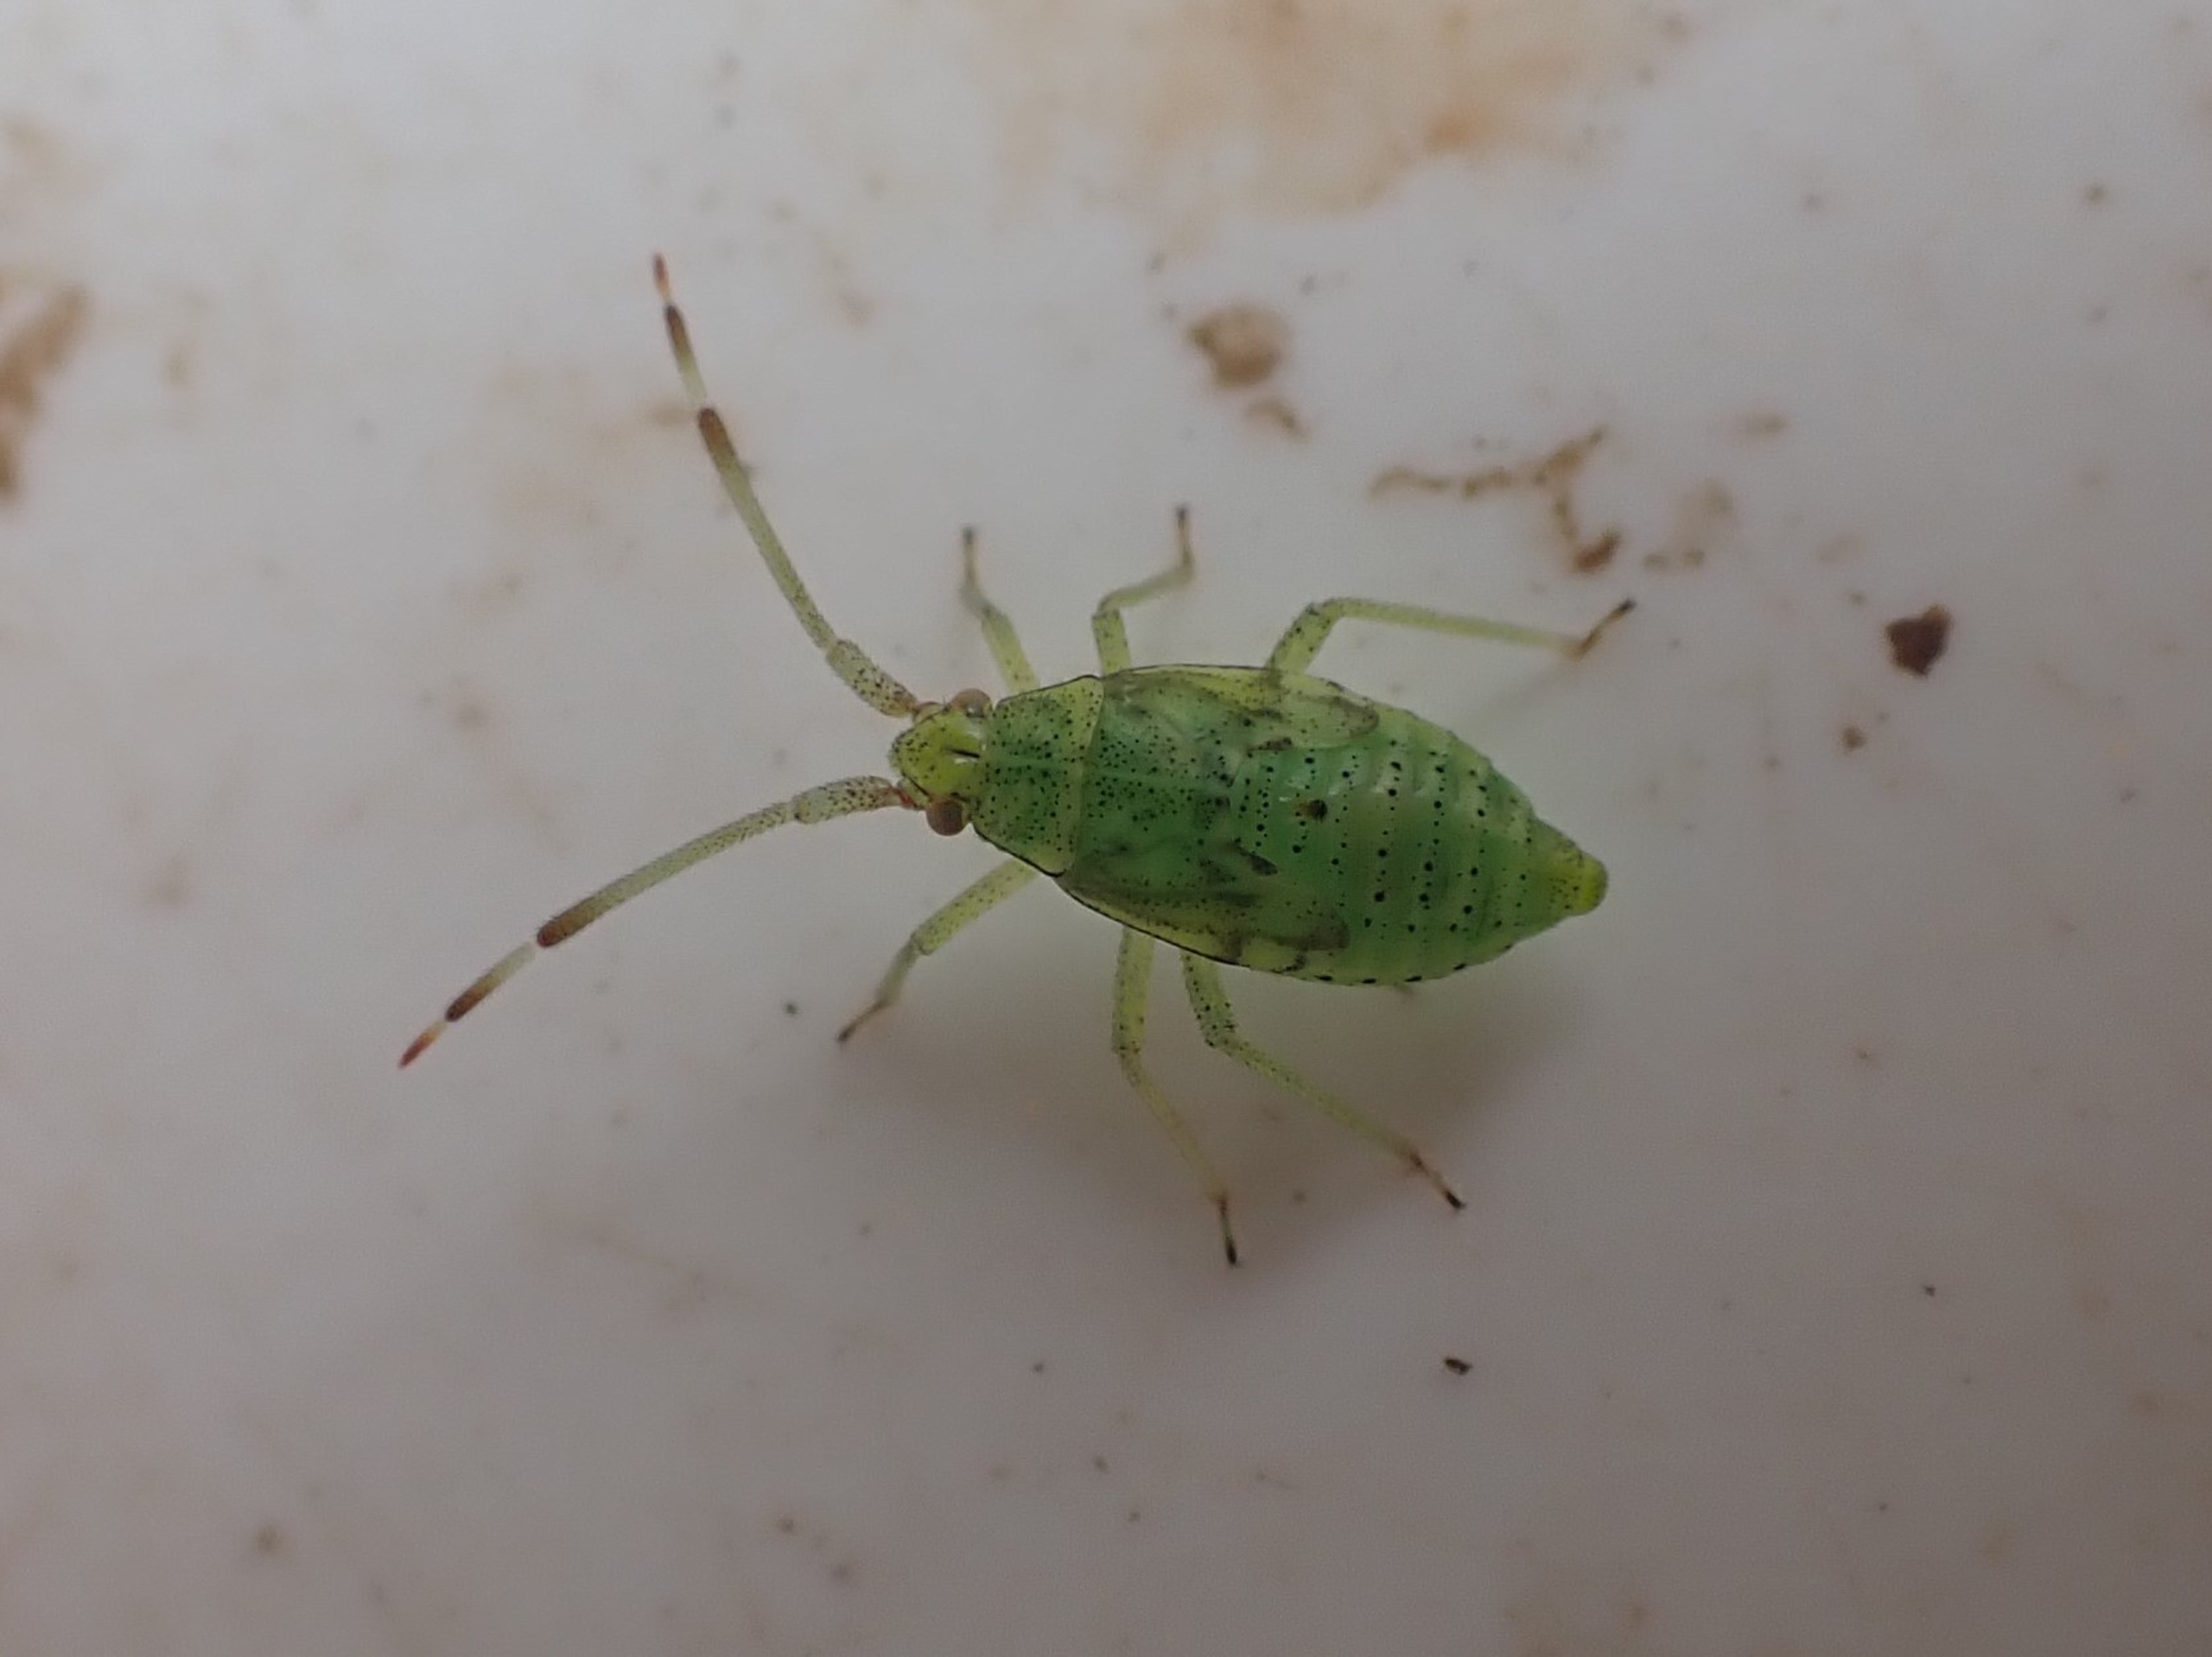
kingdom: Animalia
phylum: Arthropoda
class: Insecta
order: Hemiptera
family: Miridae
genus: Pantilius
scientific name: Pantilius tunicatus
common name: Stor hasseltæge
